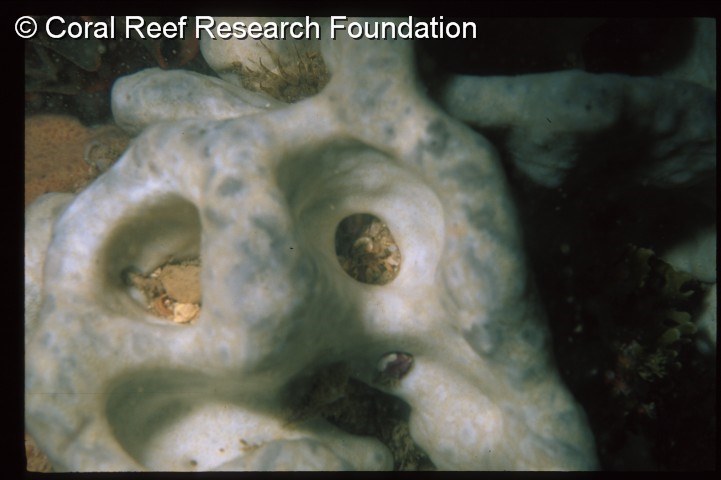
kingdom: Animalia
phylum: Chordata
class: Ascidiacea
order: Aplousobranchia
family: Didemnidae
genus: Polysyncraton
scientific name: Polysyncraton
